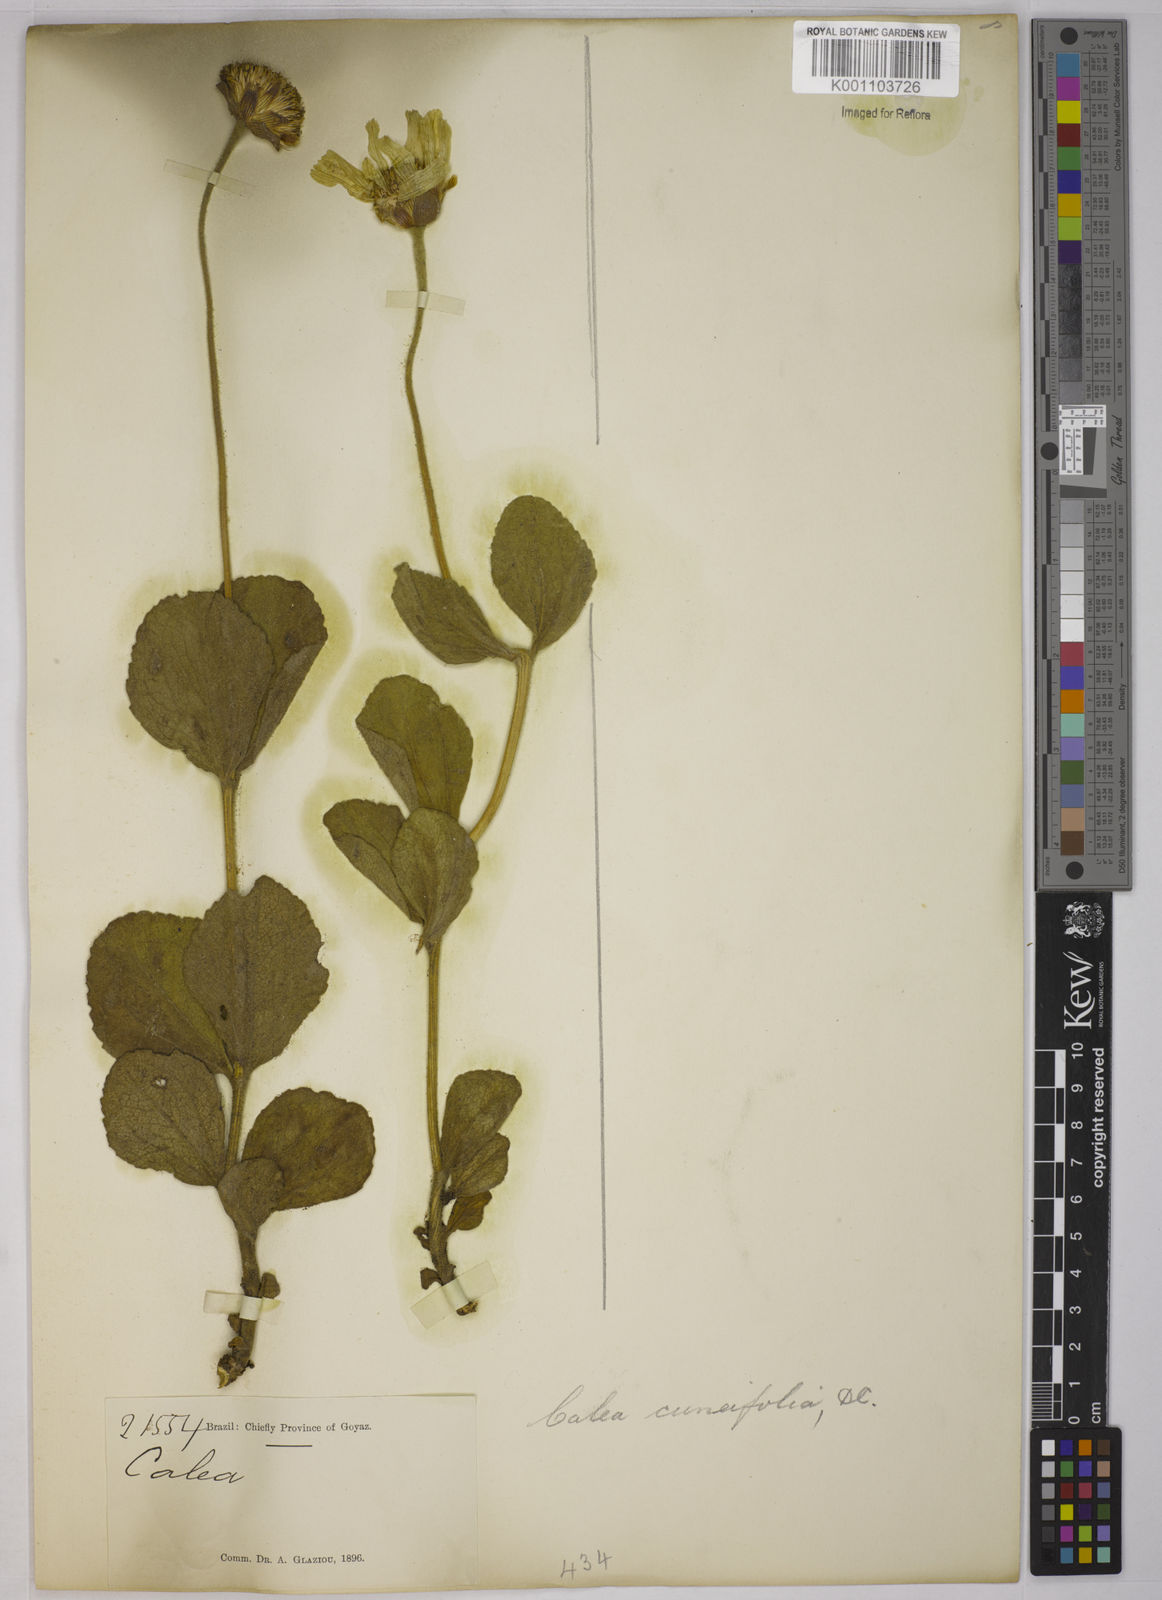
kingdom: Plantae
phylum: Tracheophyta
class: Magnoliopsida
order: Asterales
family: Asteraceae
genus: Calea
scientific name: Calea cuneifolia
